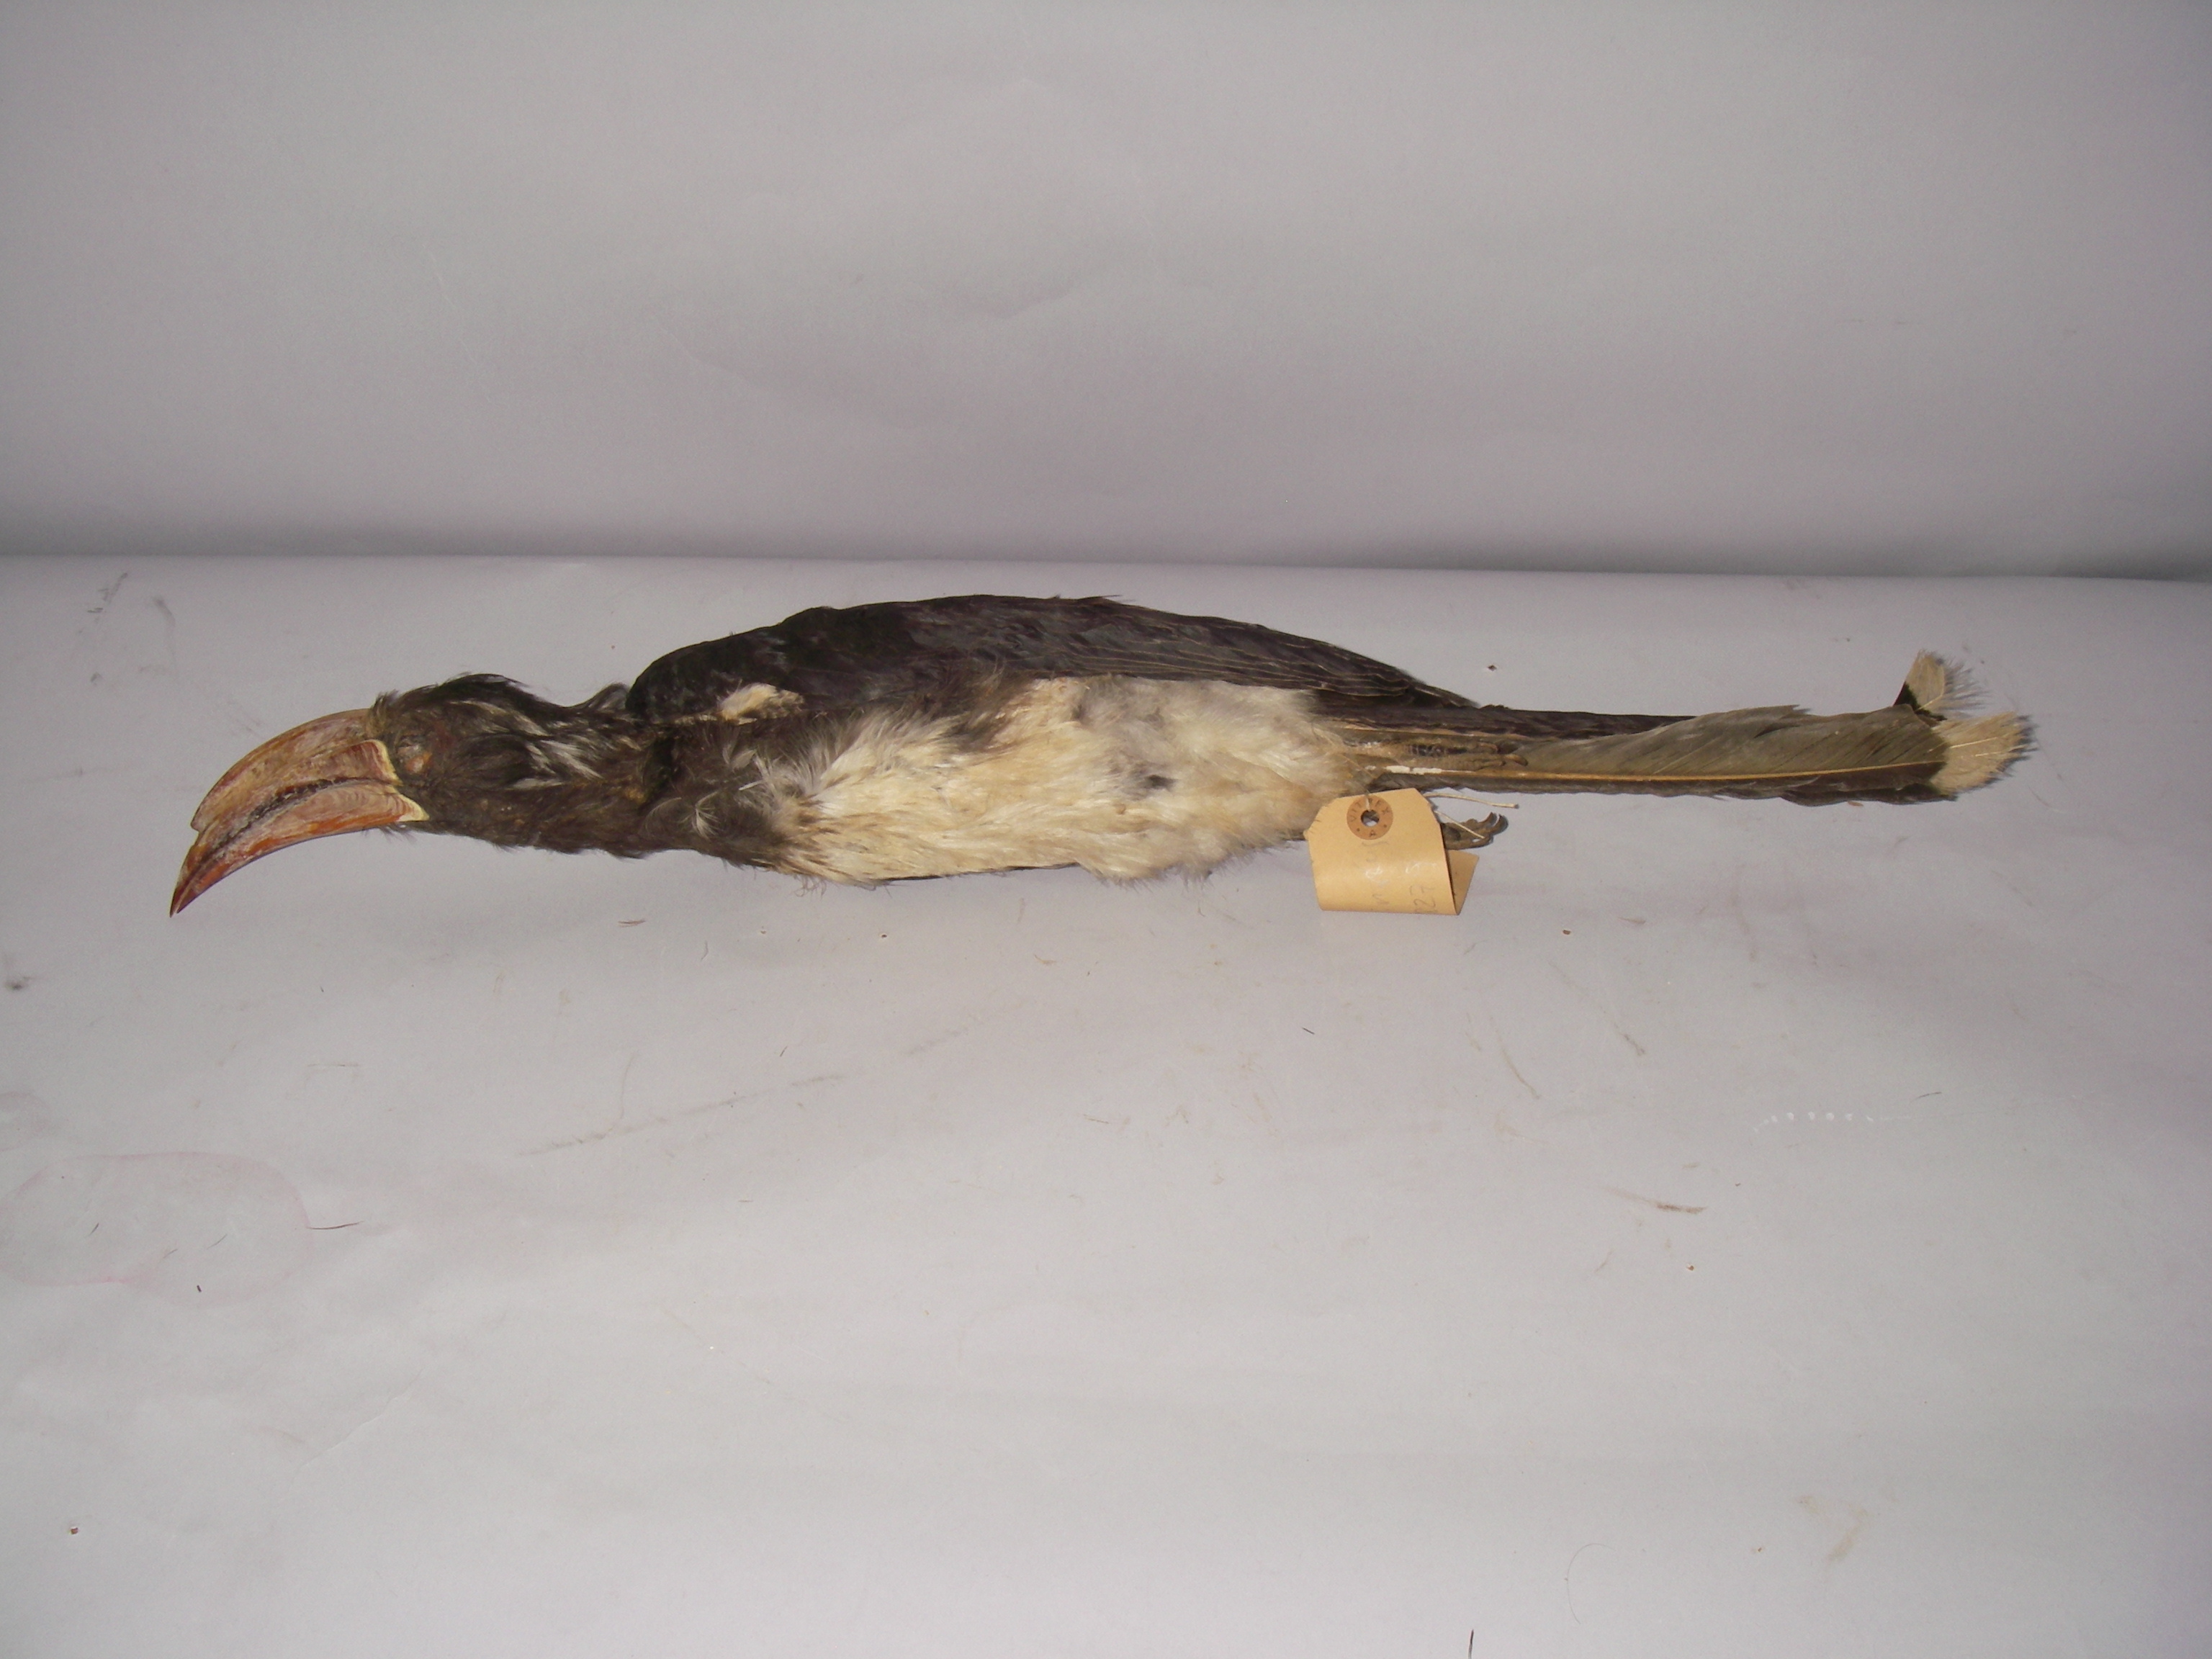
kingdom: Animalia
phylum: Chordata
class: Aves
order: Bucerotiformes
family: Bucerotidae
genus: Lophoceros
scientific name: Lophoceros alboterminatus
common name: Crowned hornbill
